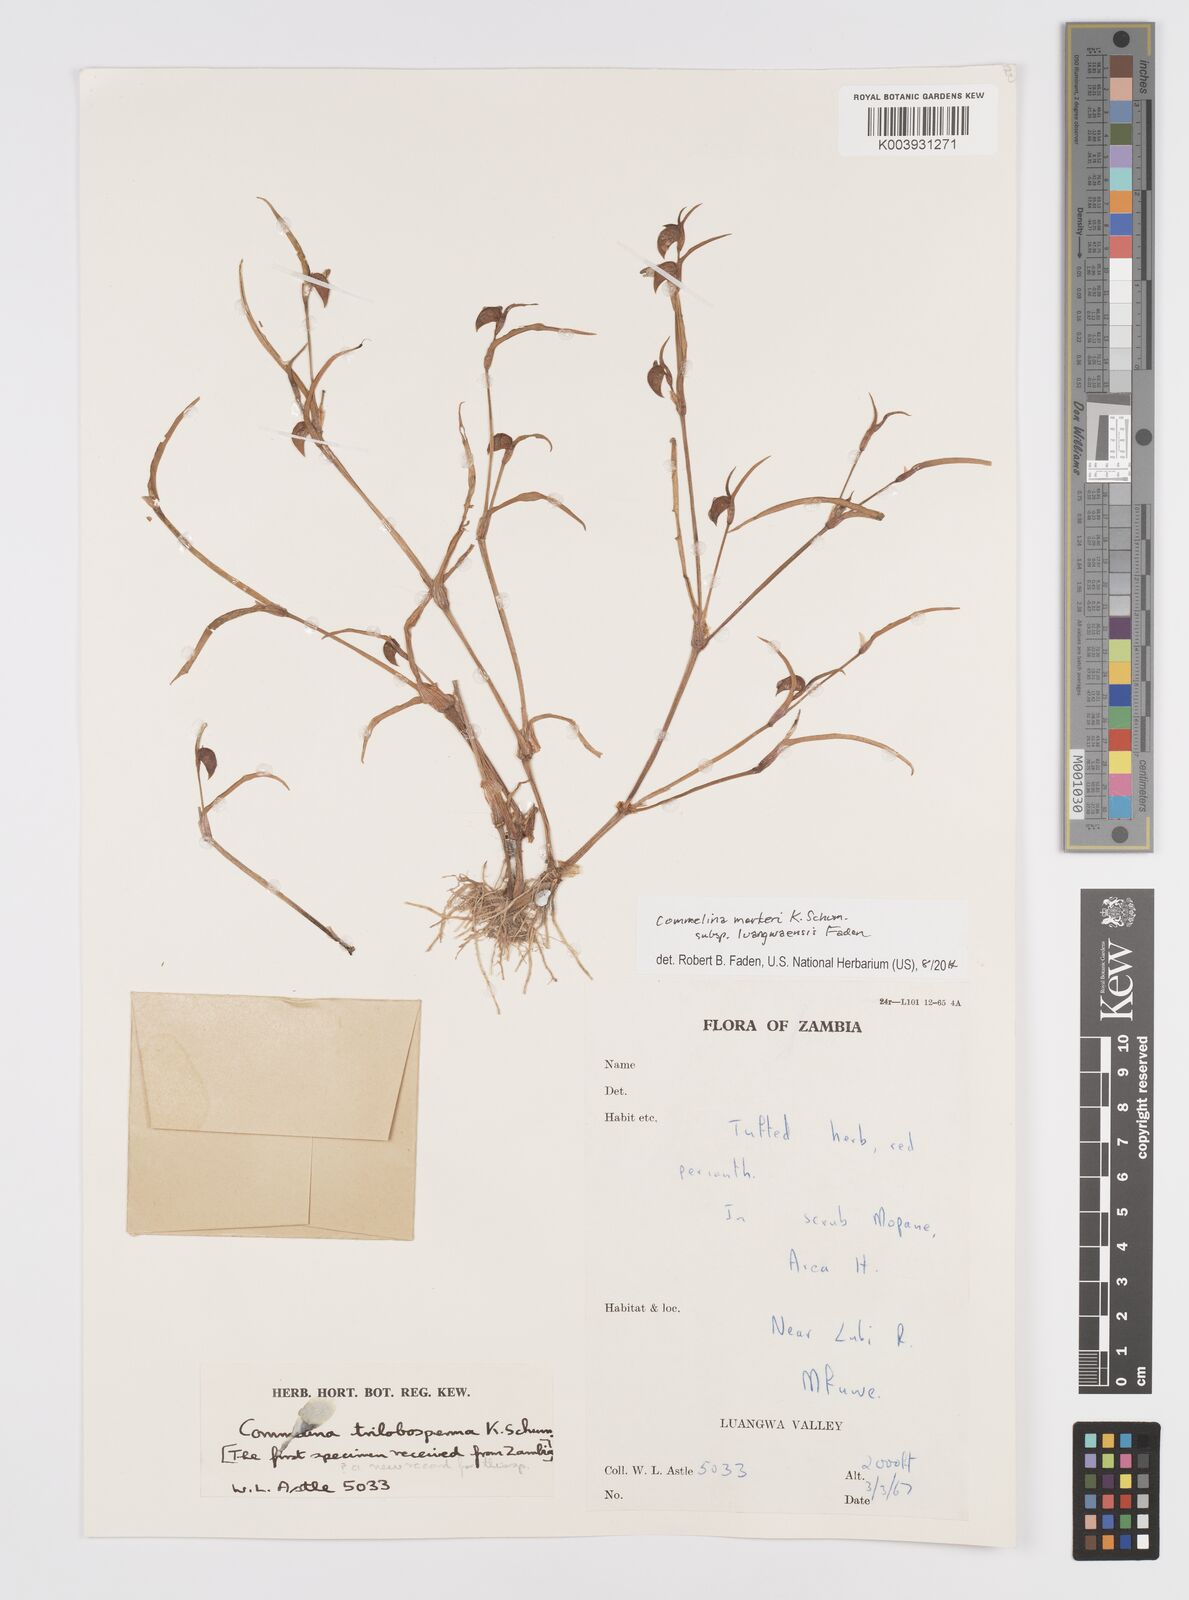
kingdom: Plantae
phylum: Tracheophyta
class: Liliopsida
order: Commelinales
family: Commelinaceae
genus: Commelina
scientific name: Commelina merkeri
